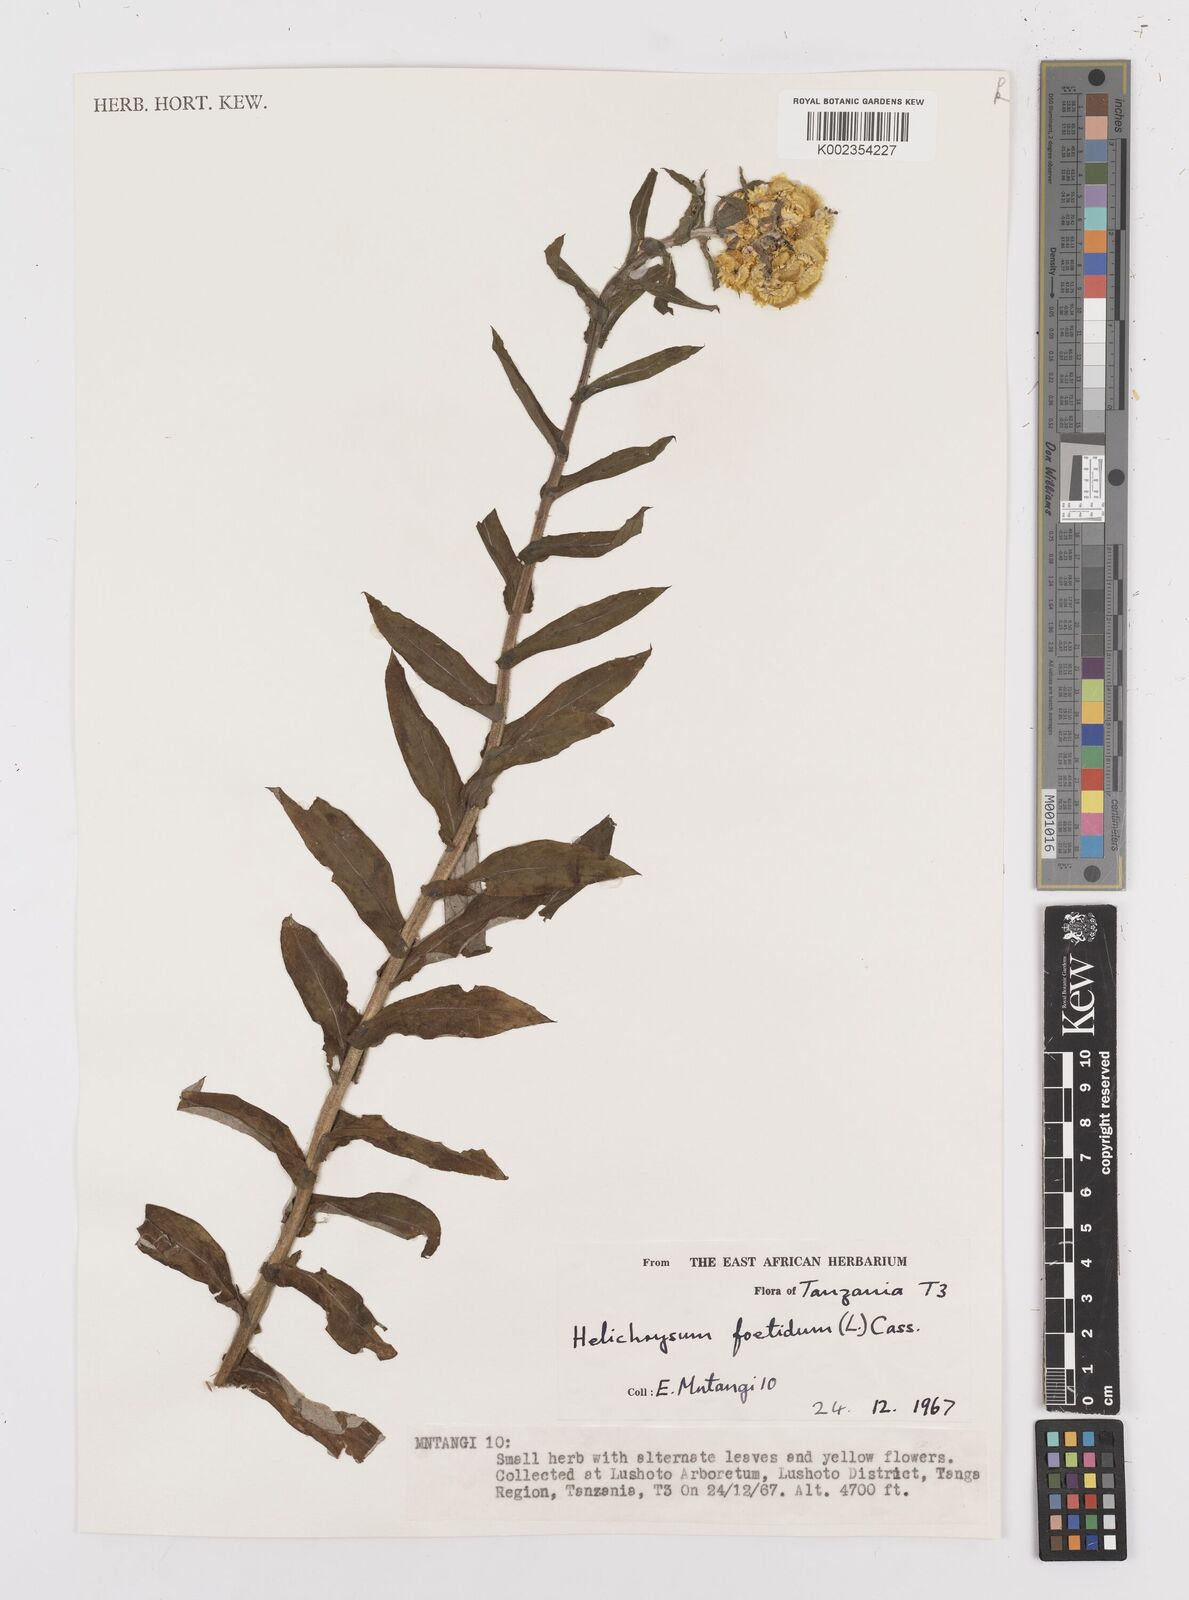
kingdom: Plantae
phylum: Tracheophyta
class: Magnoliopsida
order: Asterales
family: Asteraceae
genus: Helichrysum
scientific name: Helichrysum
